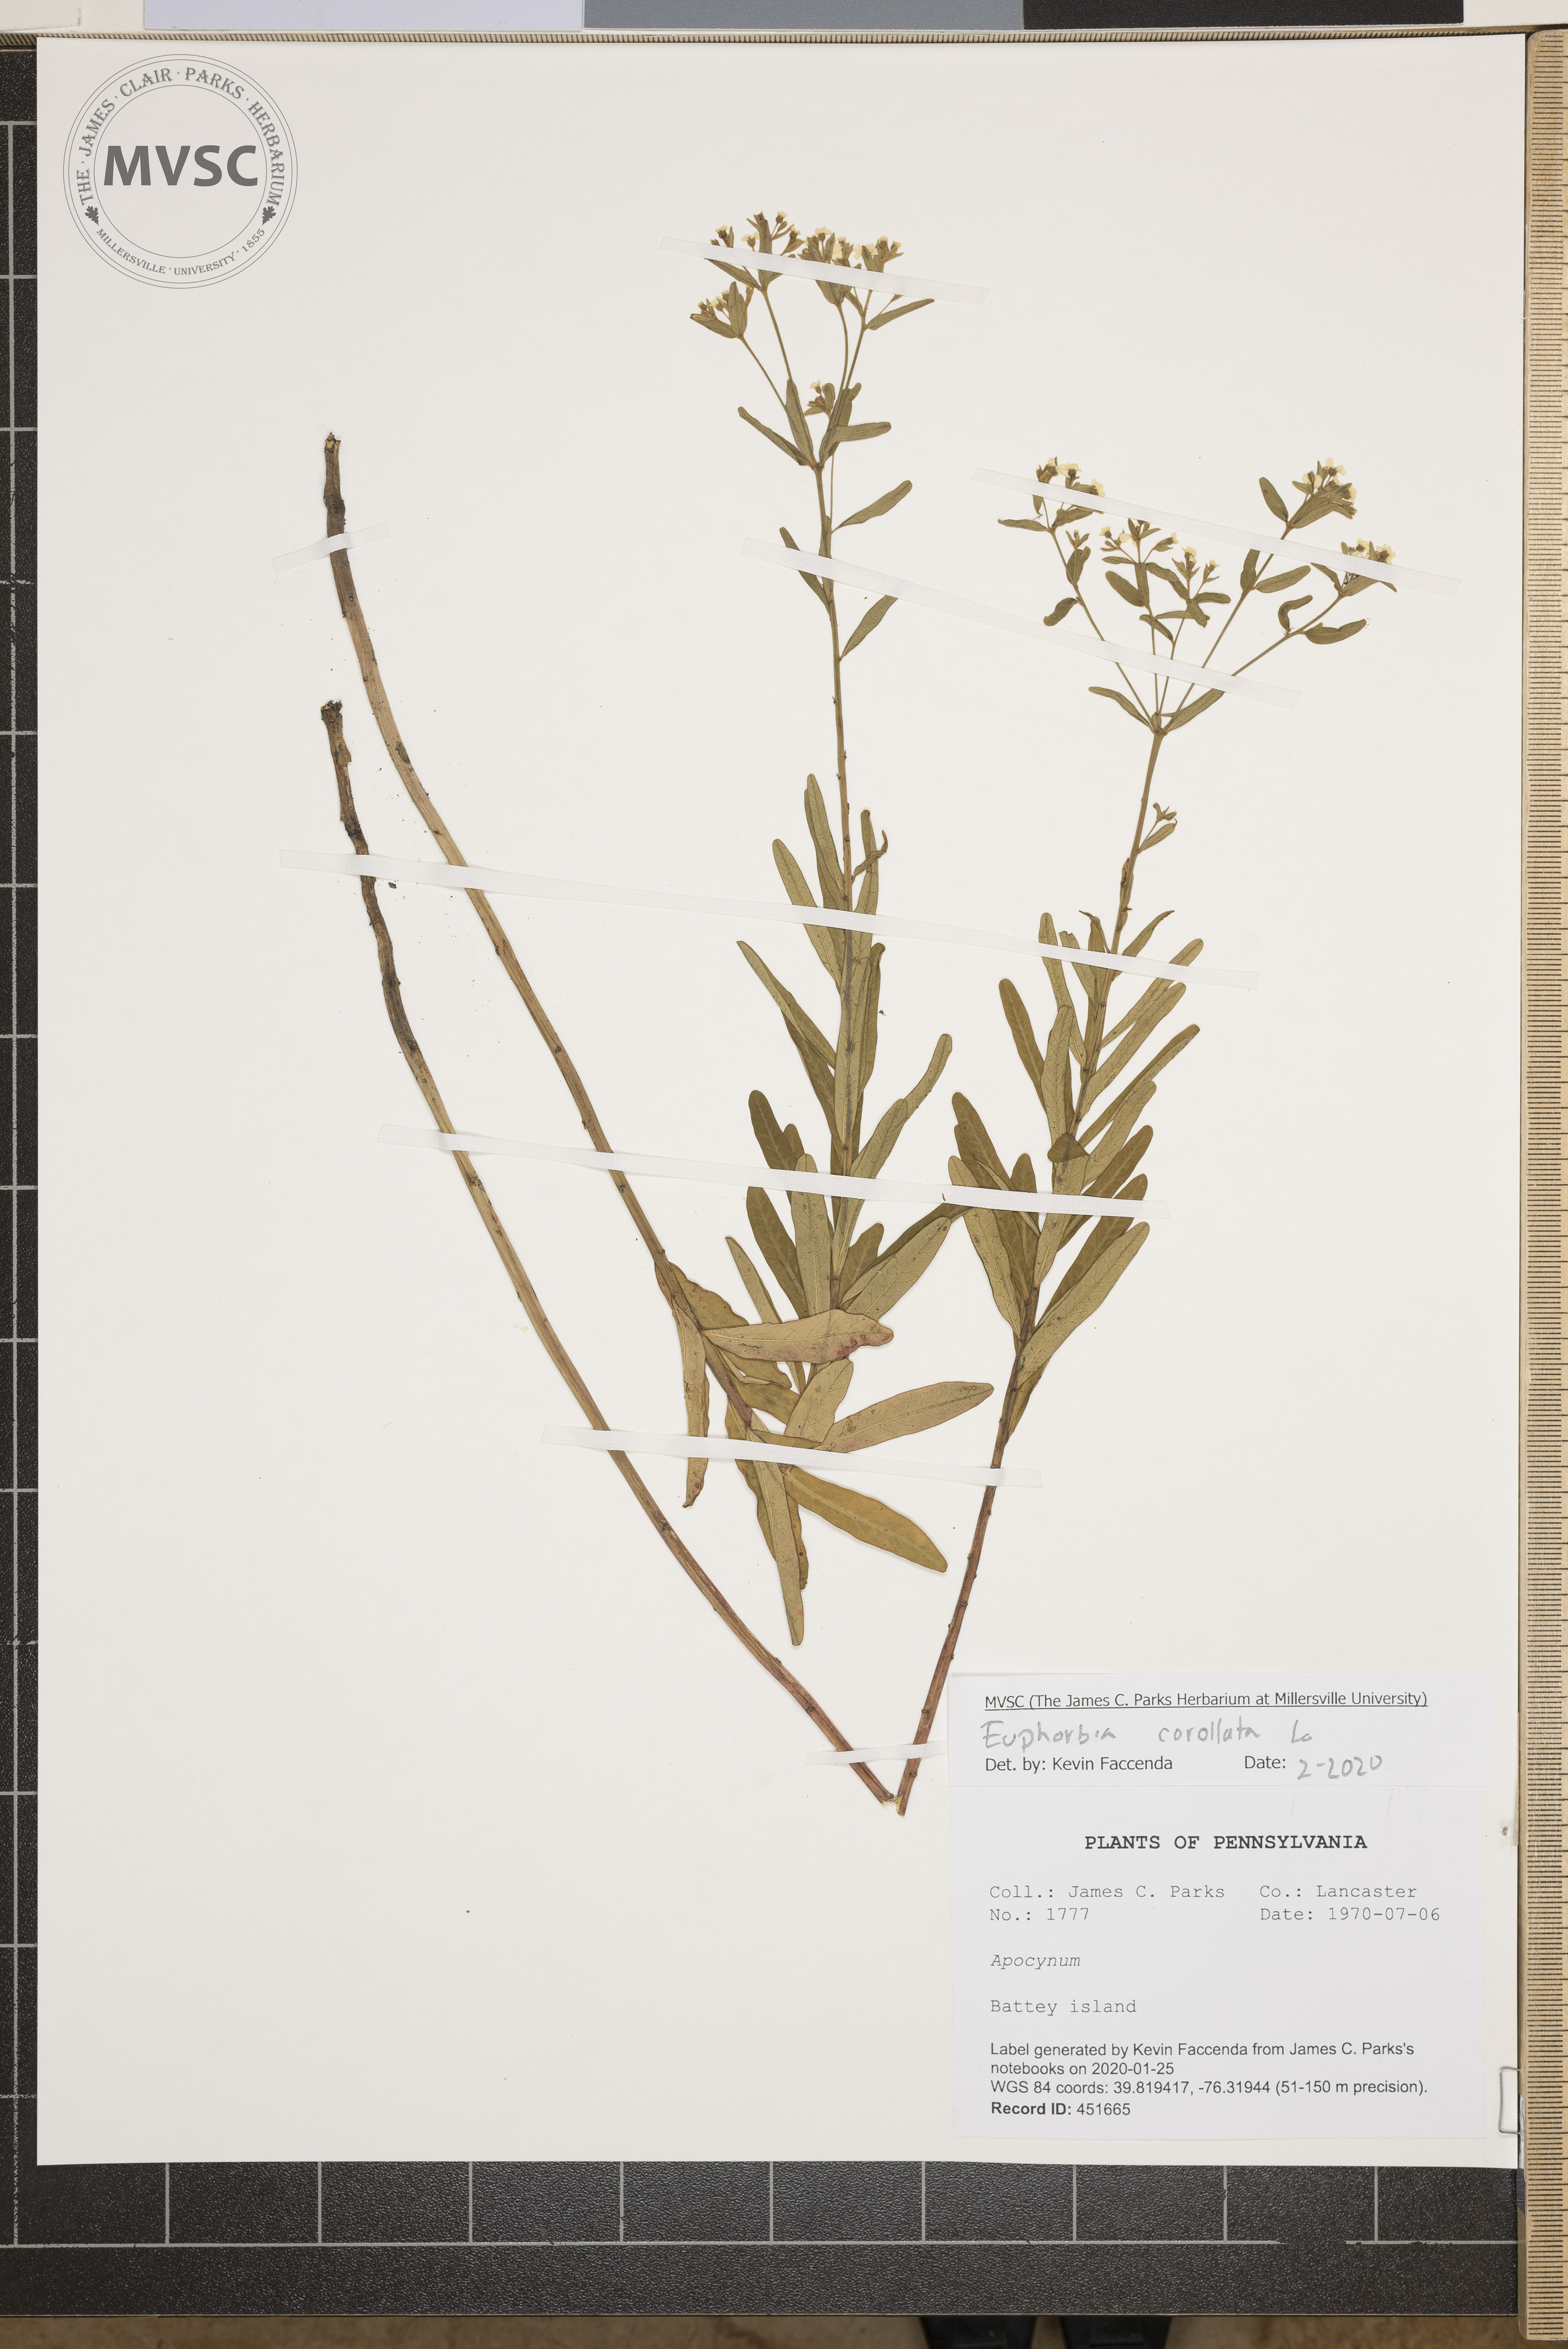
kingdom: Plantae
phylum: Tracheophyta
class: Magnoliopsida
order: Malpighiales
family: Euphorbiaceae
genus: Euphorbia
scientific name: Euphorbia corollata
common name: Flowering spurge
